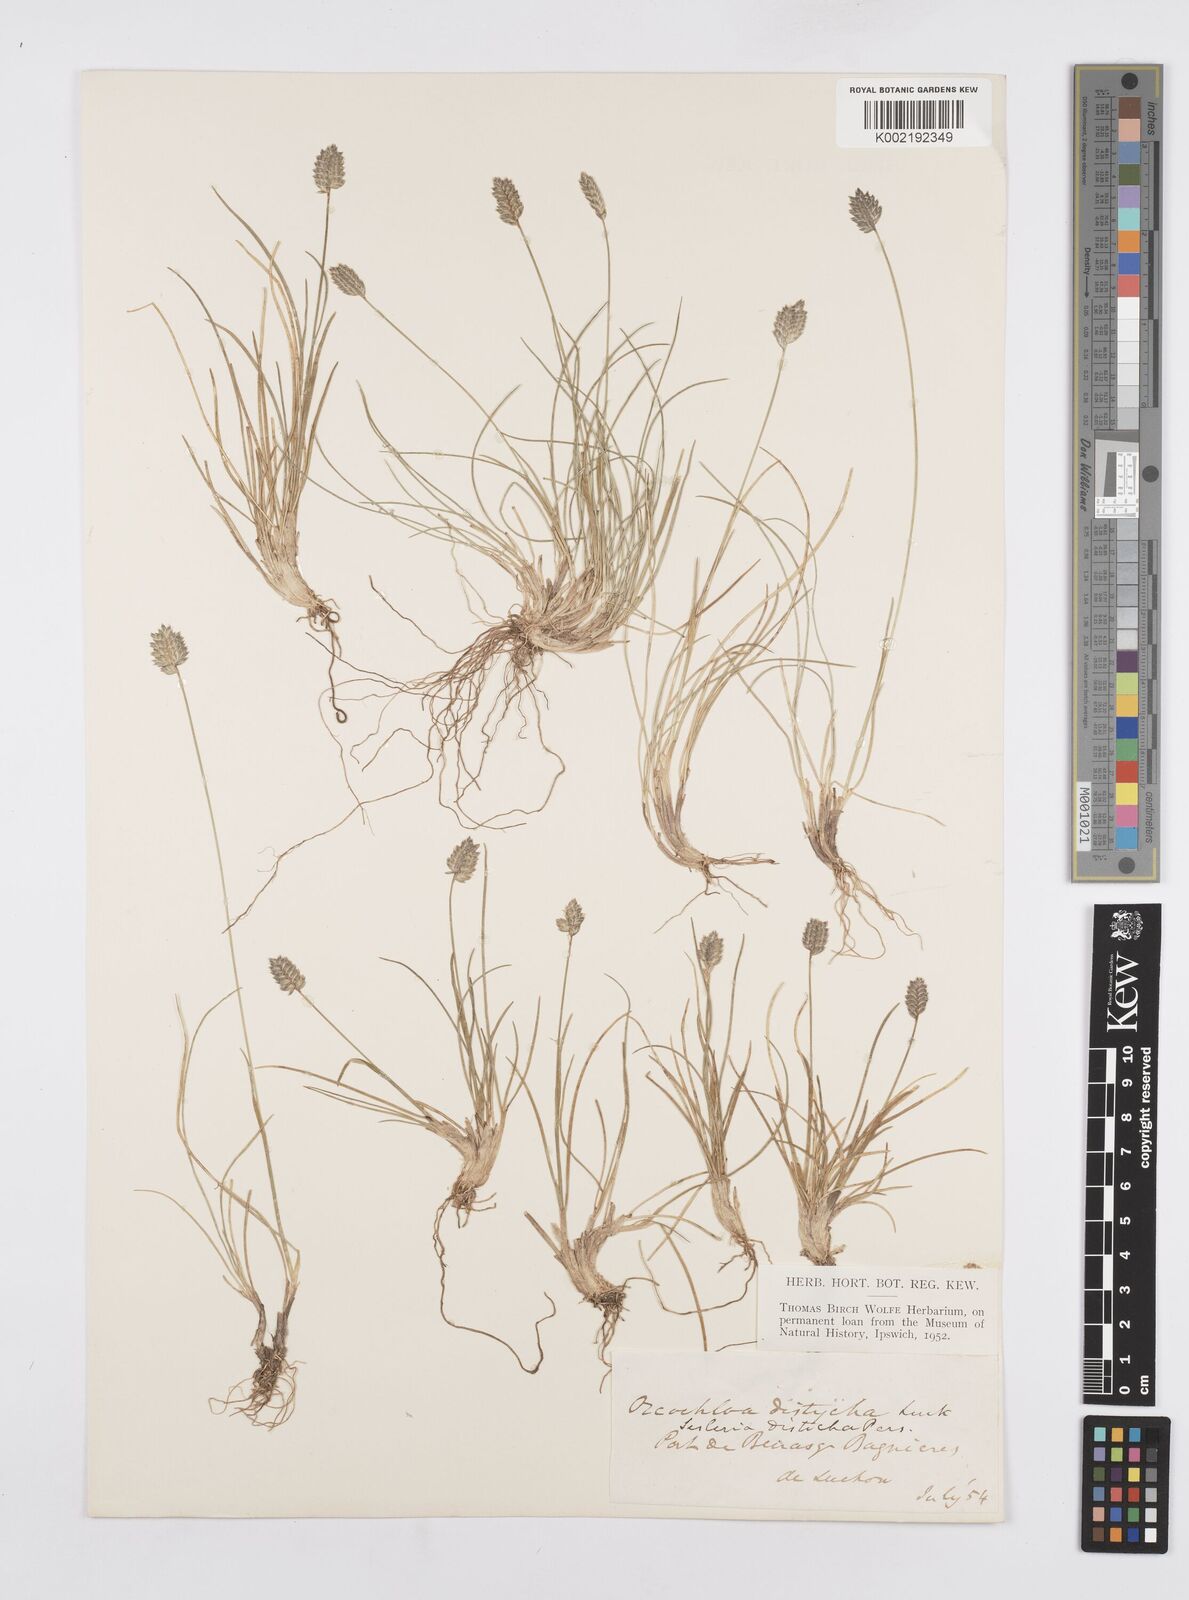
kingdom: Plantae
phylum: Tracheophyta
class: Liliopsida
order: Poales
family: Poaceae
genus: Oreochloa
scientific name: Oreochloa elegans
